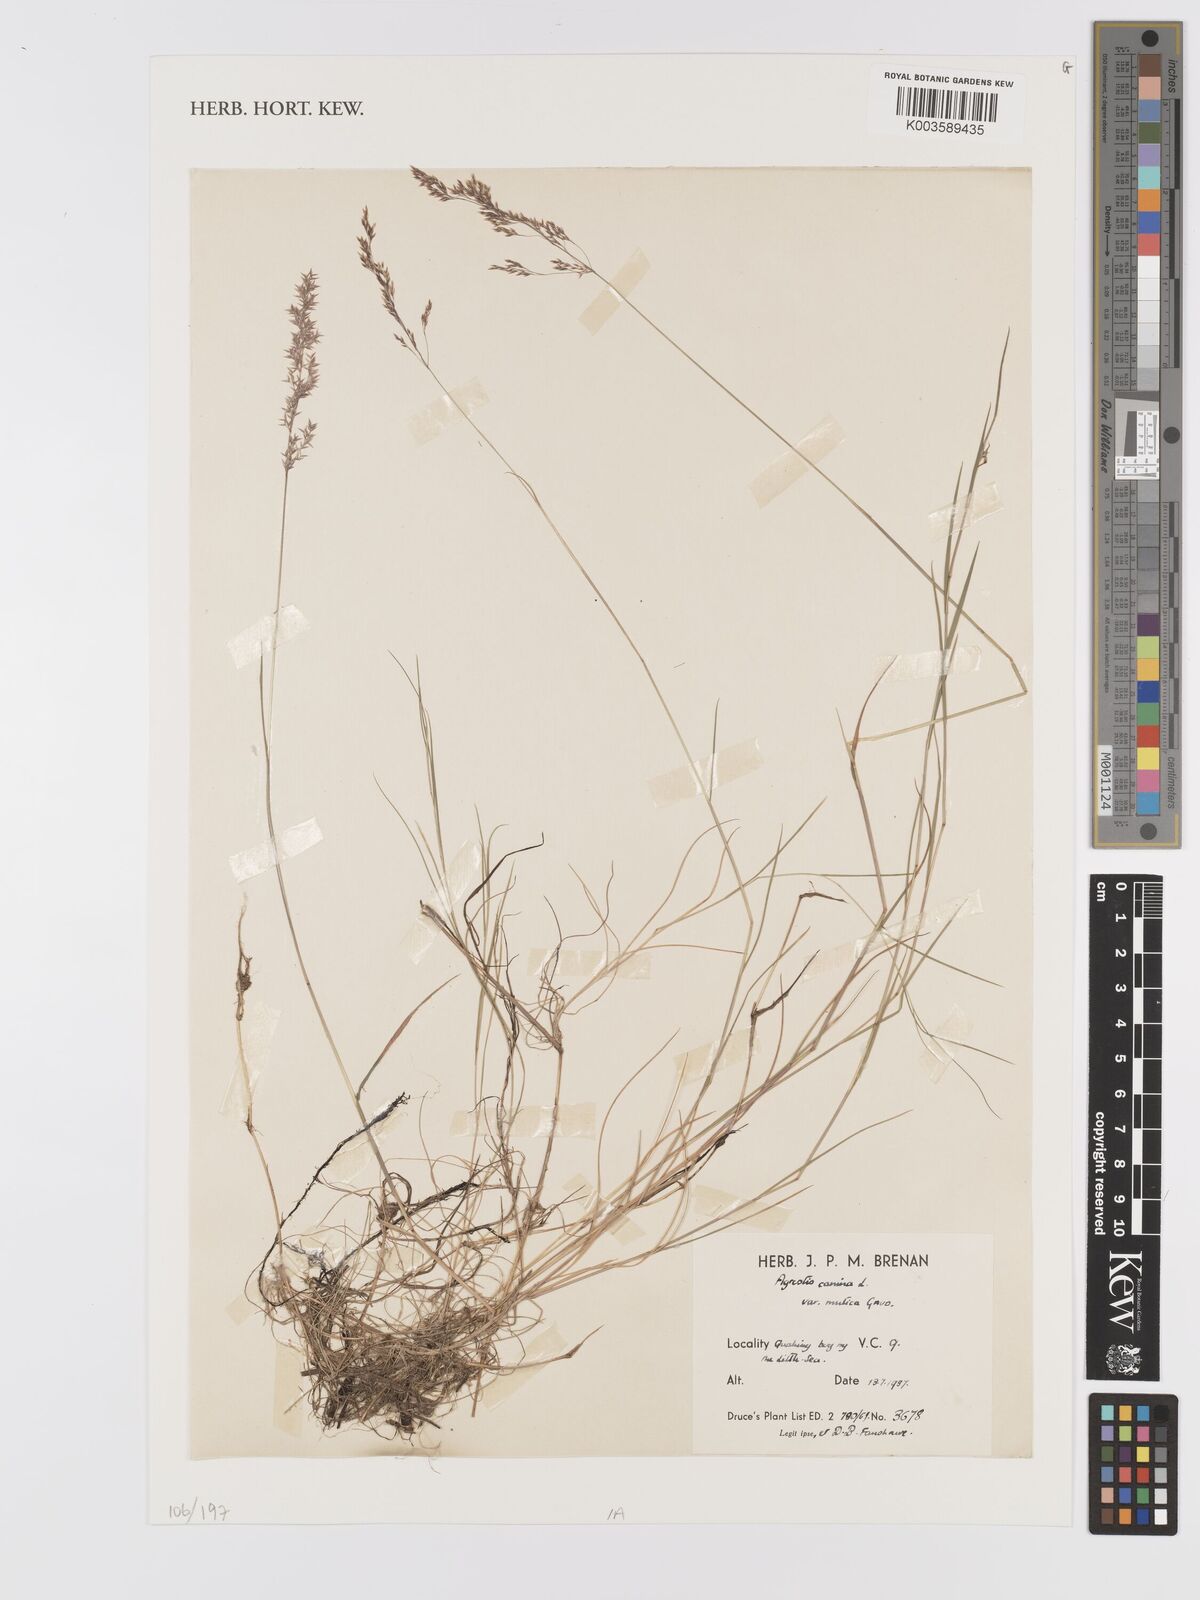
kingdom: Plantae
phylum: Tracheophyta
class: Liliopsida
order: Poales
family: Poaceae
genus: Agrostis
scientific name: Agrostis canina
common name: Velvet bent
